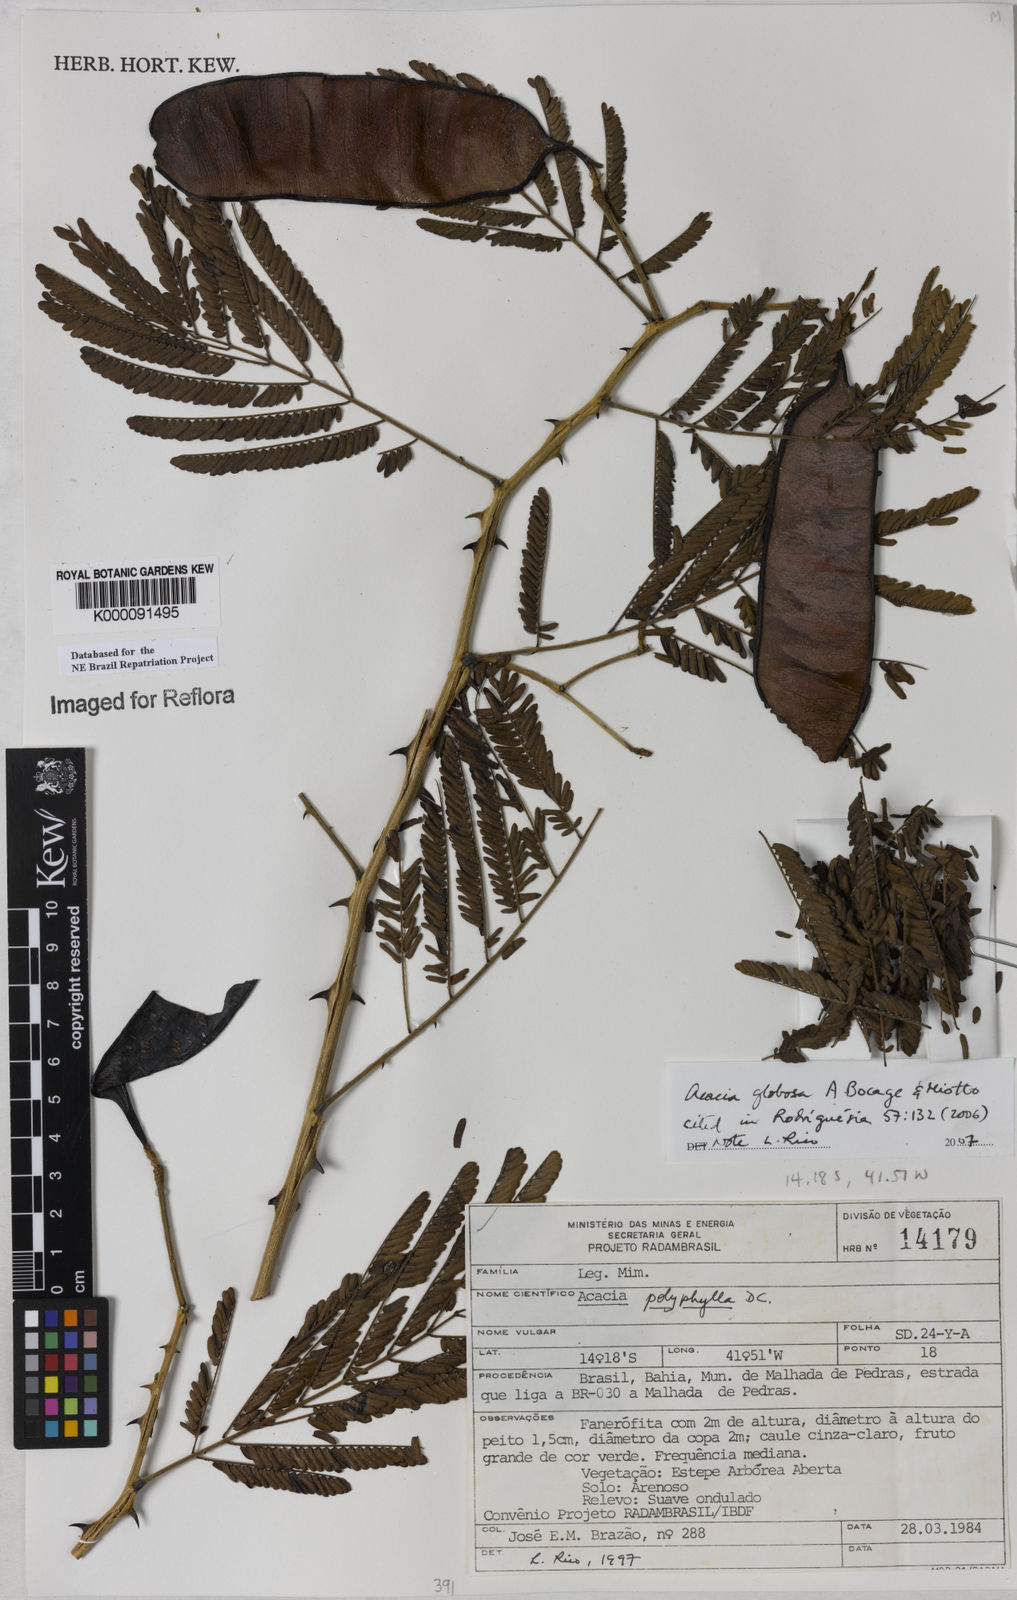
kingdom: Plantae
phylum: Tracheophyta
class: Magnoliopsida
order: Fabales
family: Fabaceae
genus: Senegalia
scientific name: Senegalia globosa
